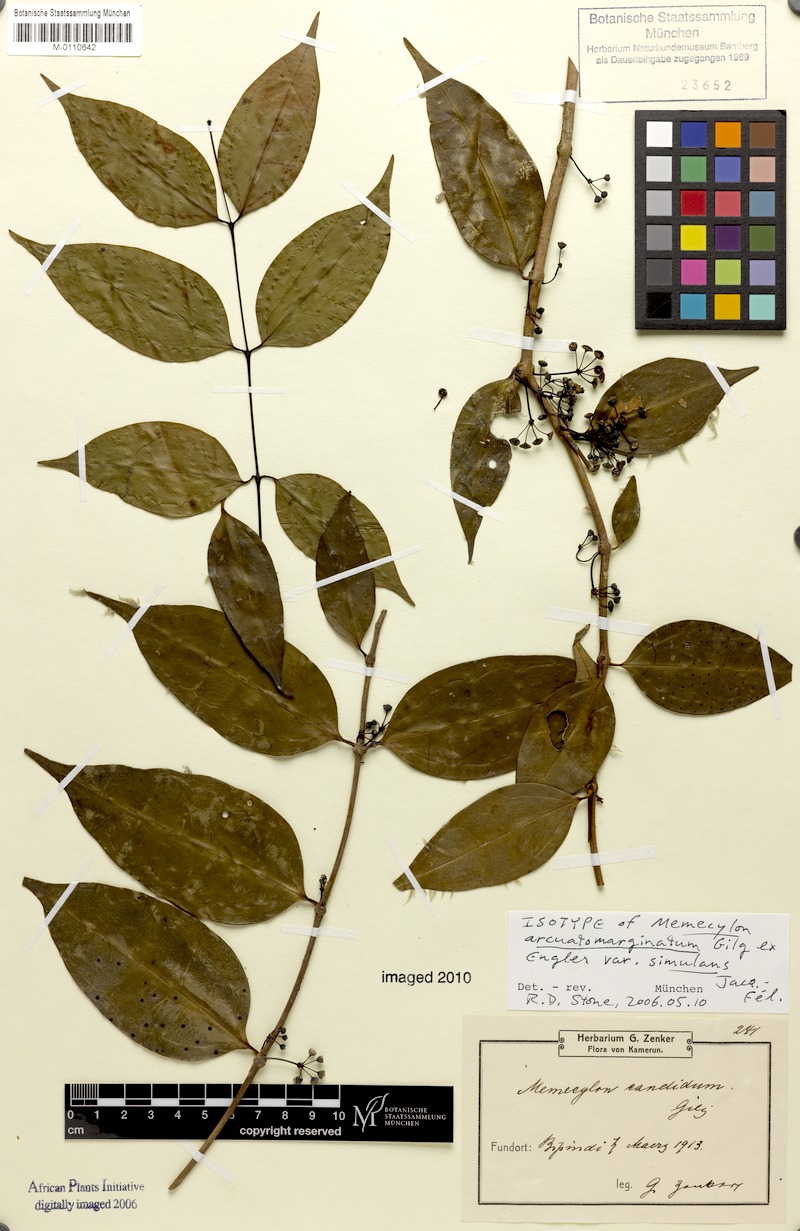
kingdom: Plantae
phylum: Tracheophyta
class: Magnoliopsida
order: Myrtales
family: Melastomataceae
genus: Memecylon
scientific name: Memecylon arcuatomarginatum
